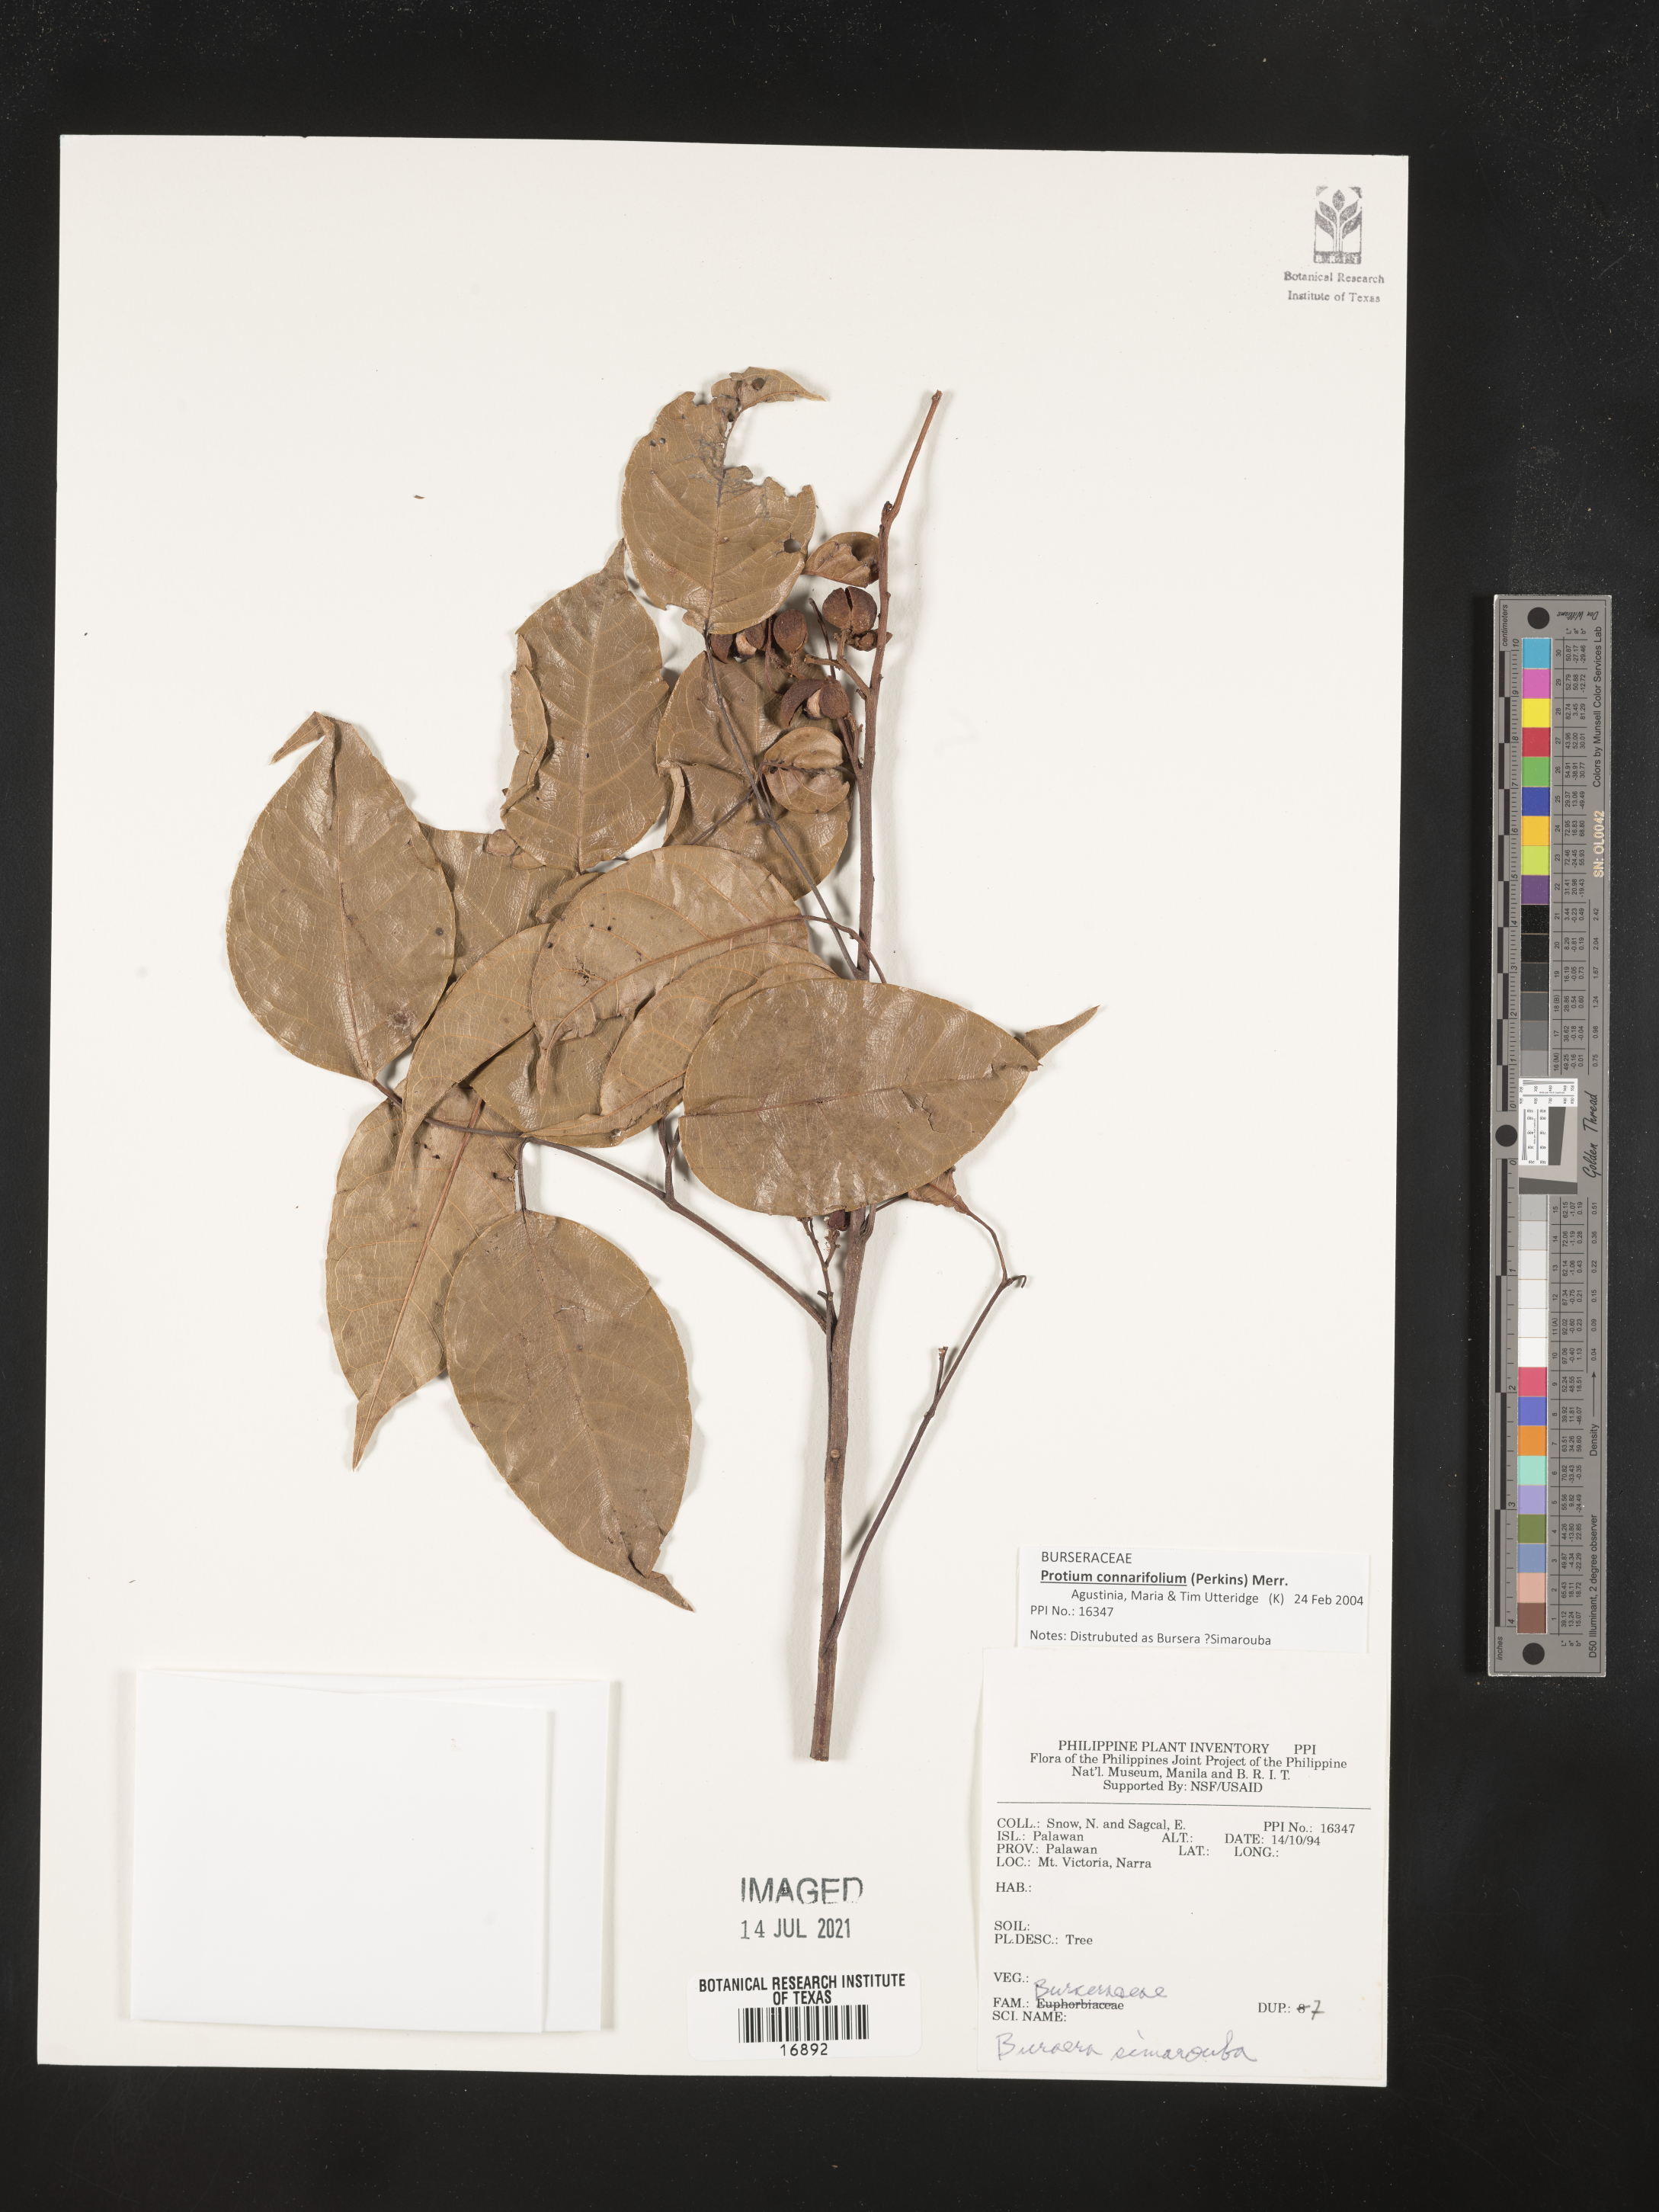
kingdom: Plantae
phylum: Tracheophyta
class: Magnoliopsida
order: Sapindales
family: Burseraceae
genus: Bursera
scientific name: Bursera simaruba
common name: Turpentine tree
